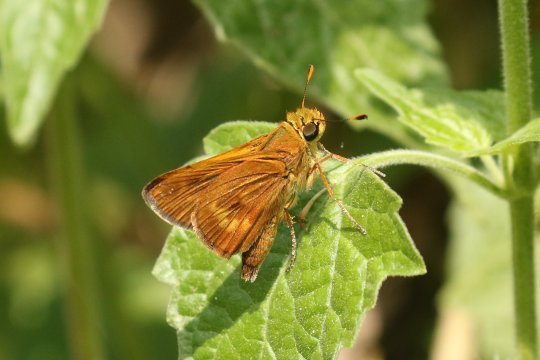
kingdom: Animalia
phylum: Arthropoda
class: Insecta
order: Lepidoptera
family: Hesperiidae
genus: Wallengrenia
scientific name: Wallengrenia otho
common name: Southern Broken-Dash
